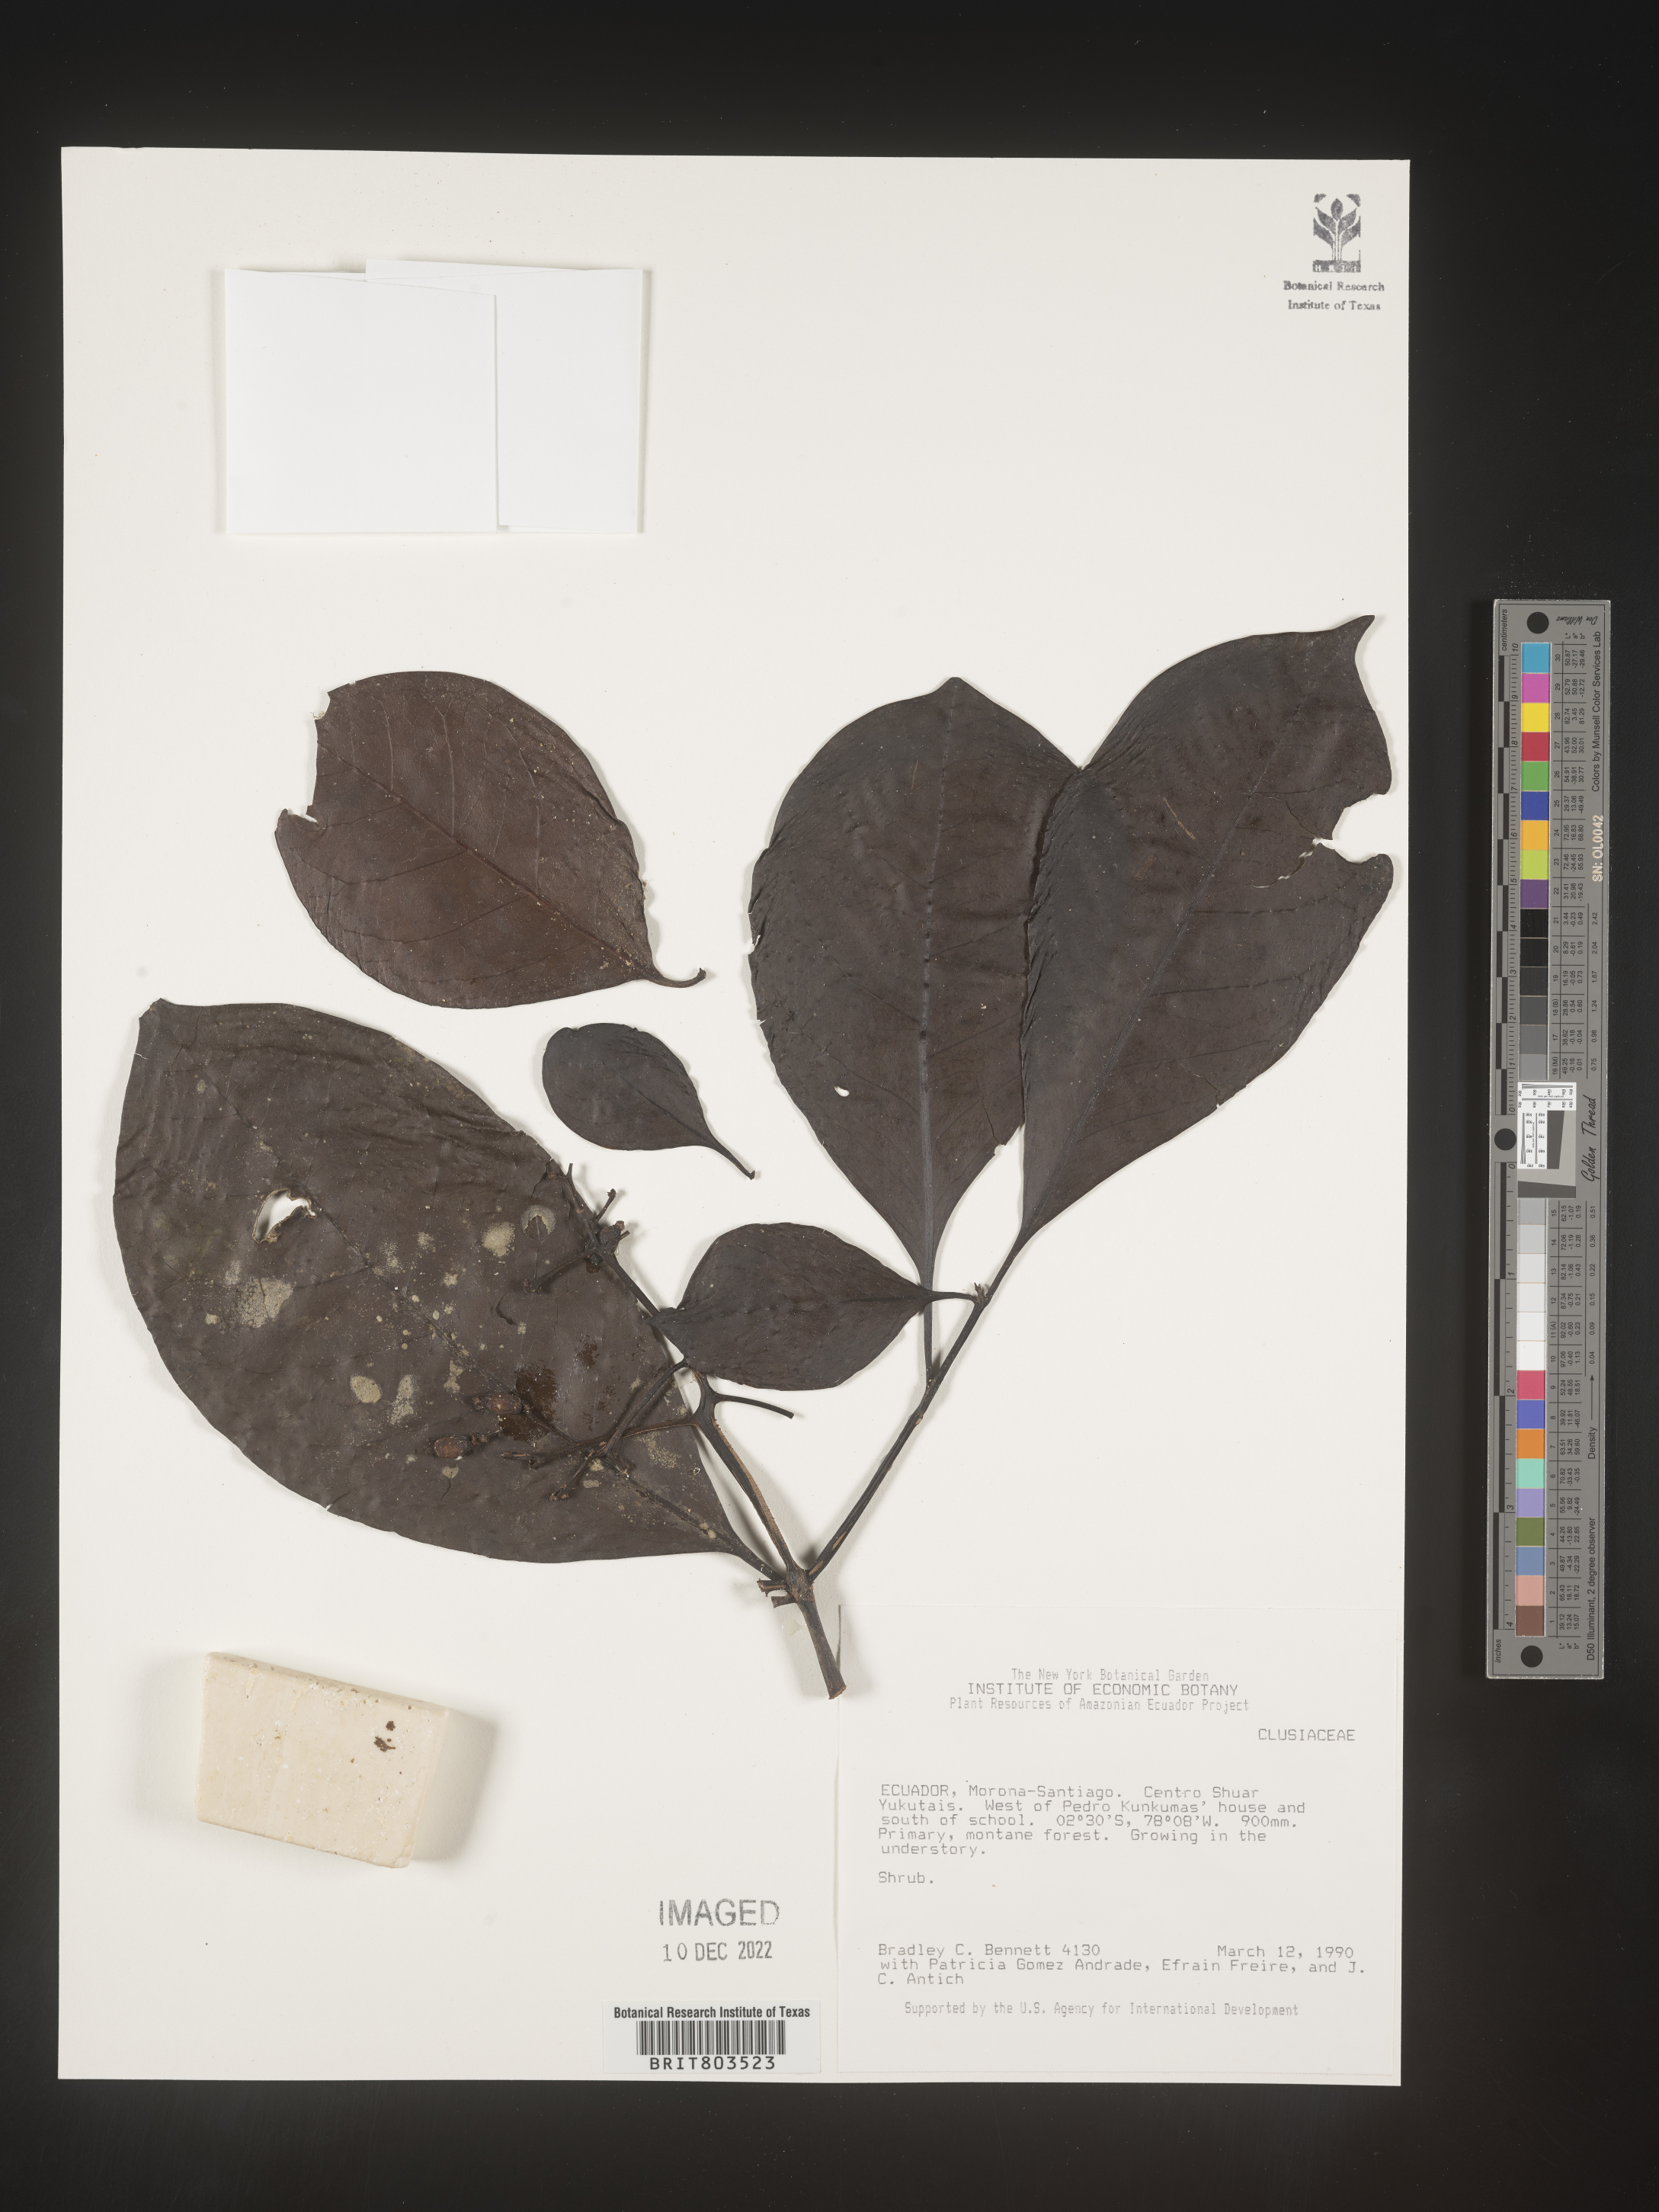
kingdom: Plantae
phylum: Tracheophyta
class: Magnoliopsida
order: Malpighiales
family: Clusiaceae
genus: Tovomita
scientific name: Tovomita
